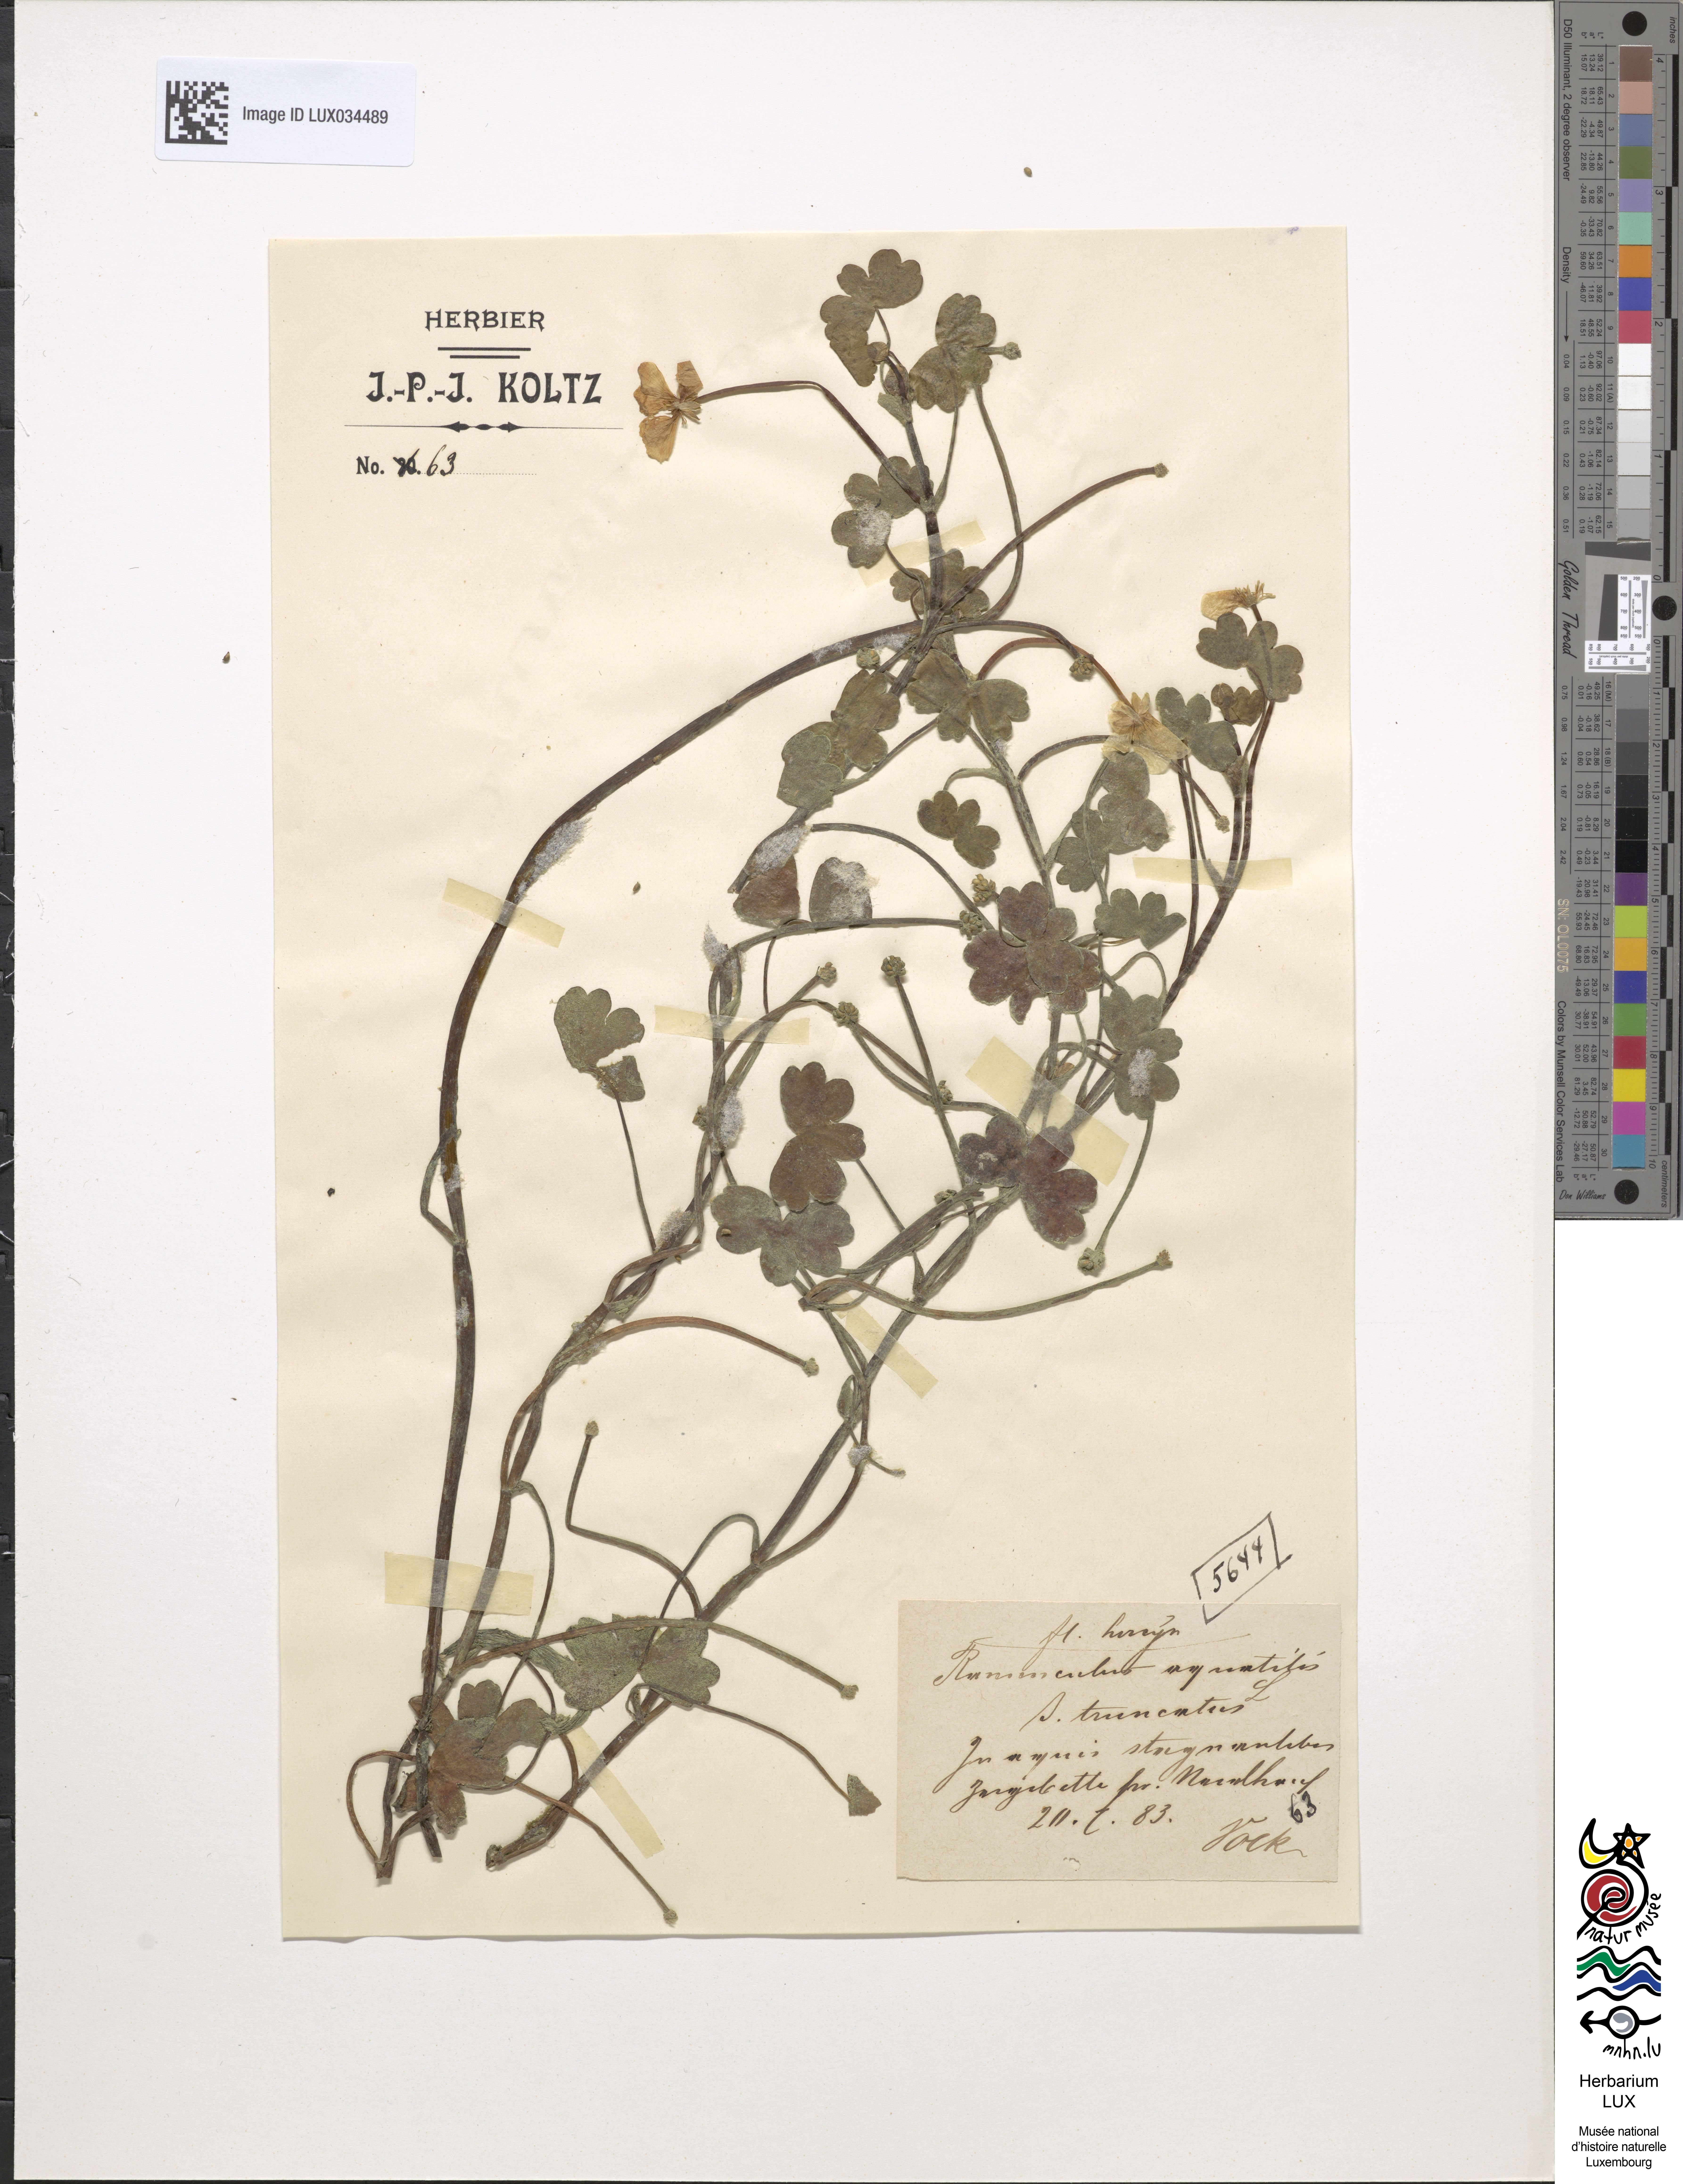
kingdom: Plantae
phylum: Tracheophyta
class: Magnoliopsida
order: Ranunculales
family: Ranunculaceae
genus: Ranunculus
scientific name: Ranunculus peltatus
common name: Pond water-crowfoot
